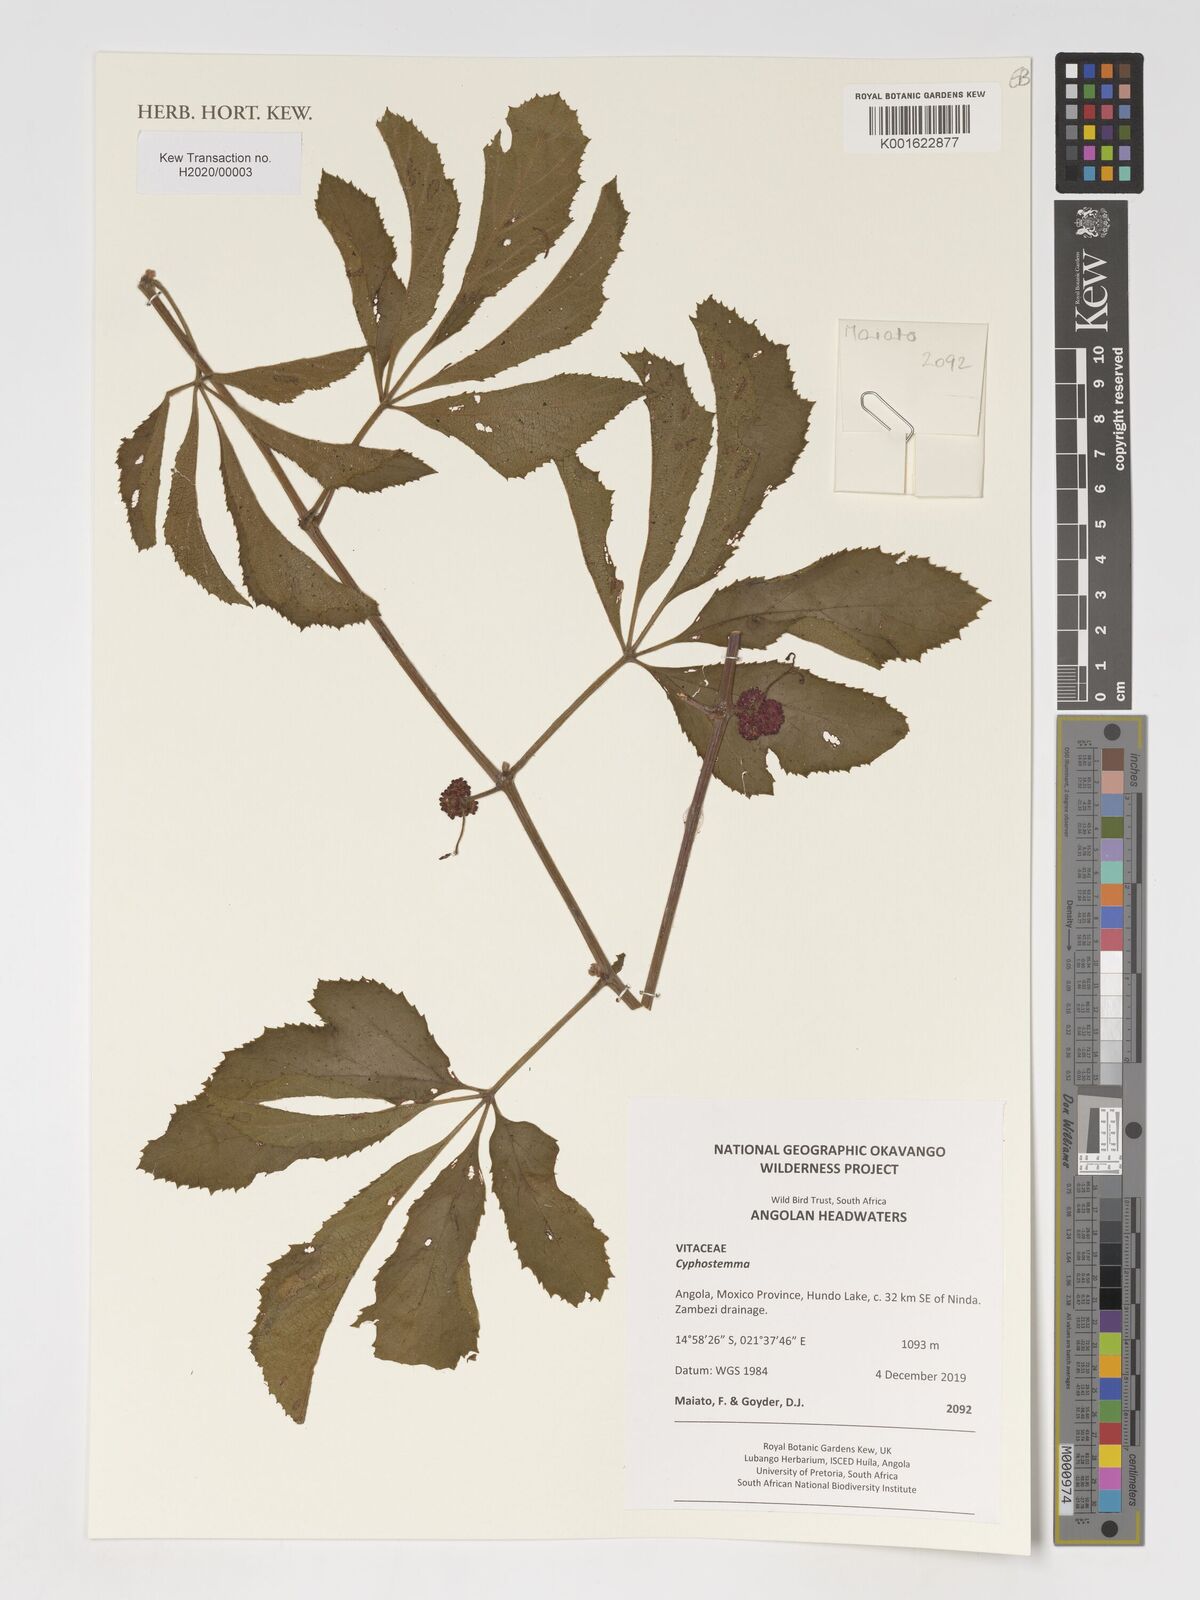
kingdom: Plantae
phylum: Tracheophyta
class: Magnoliopsida
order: Vitales
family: Vitaceae
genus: Cyphostemma
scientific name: Cyphostemma
